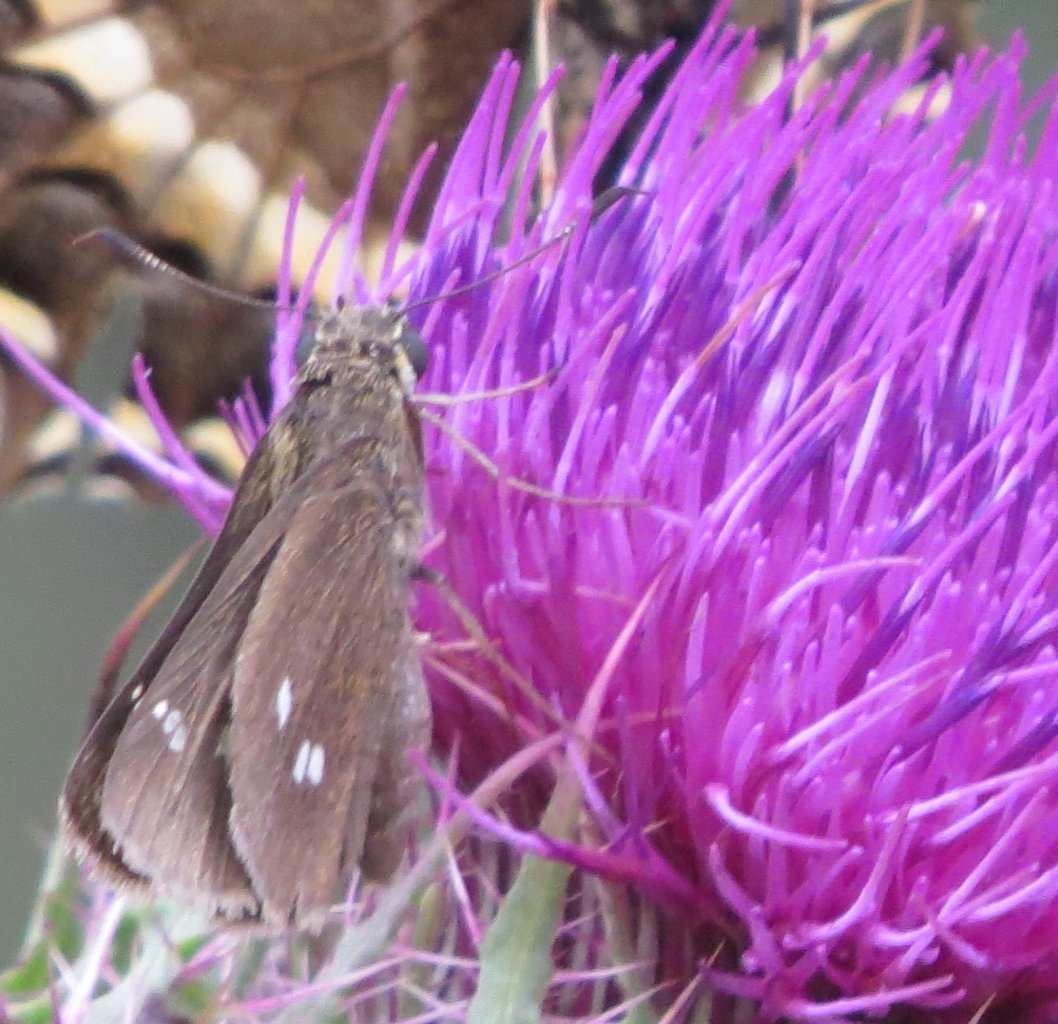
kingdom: Animalia
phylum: Arthropoda
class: Insecta
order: Lepidoptera
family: Hesperiidae
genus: Oligoria
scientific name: Oligoria maculata
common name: Twin-spot Skipper
